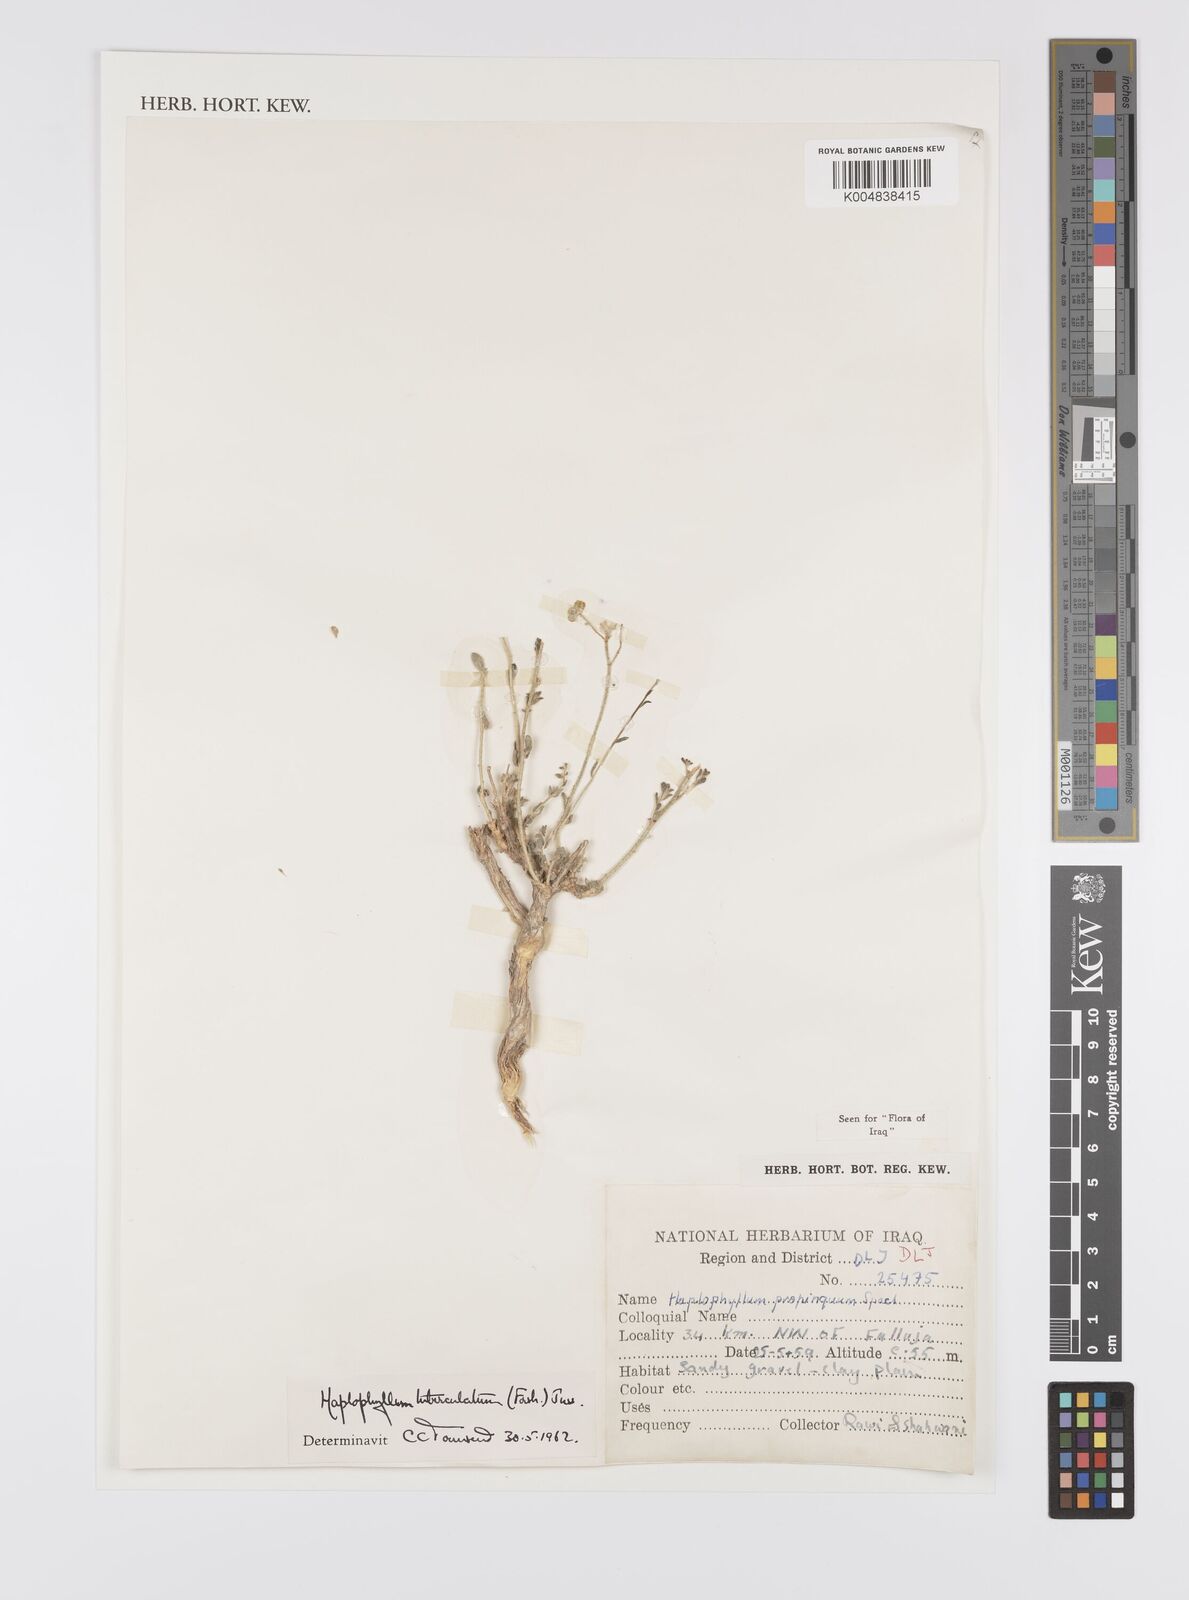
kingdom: Plantae
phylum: Tracheophyta
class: Magnoliopsida
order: Sapindales
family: Rutaceae
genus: Haplophyllum
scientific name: Haplophyllum tuberculatum
